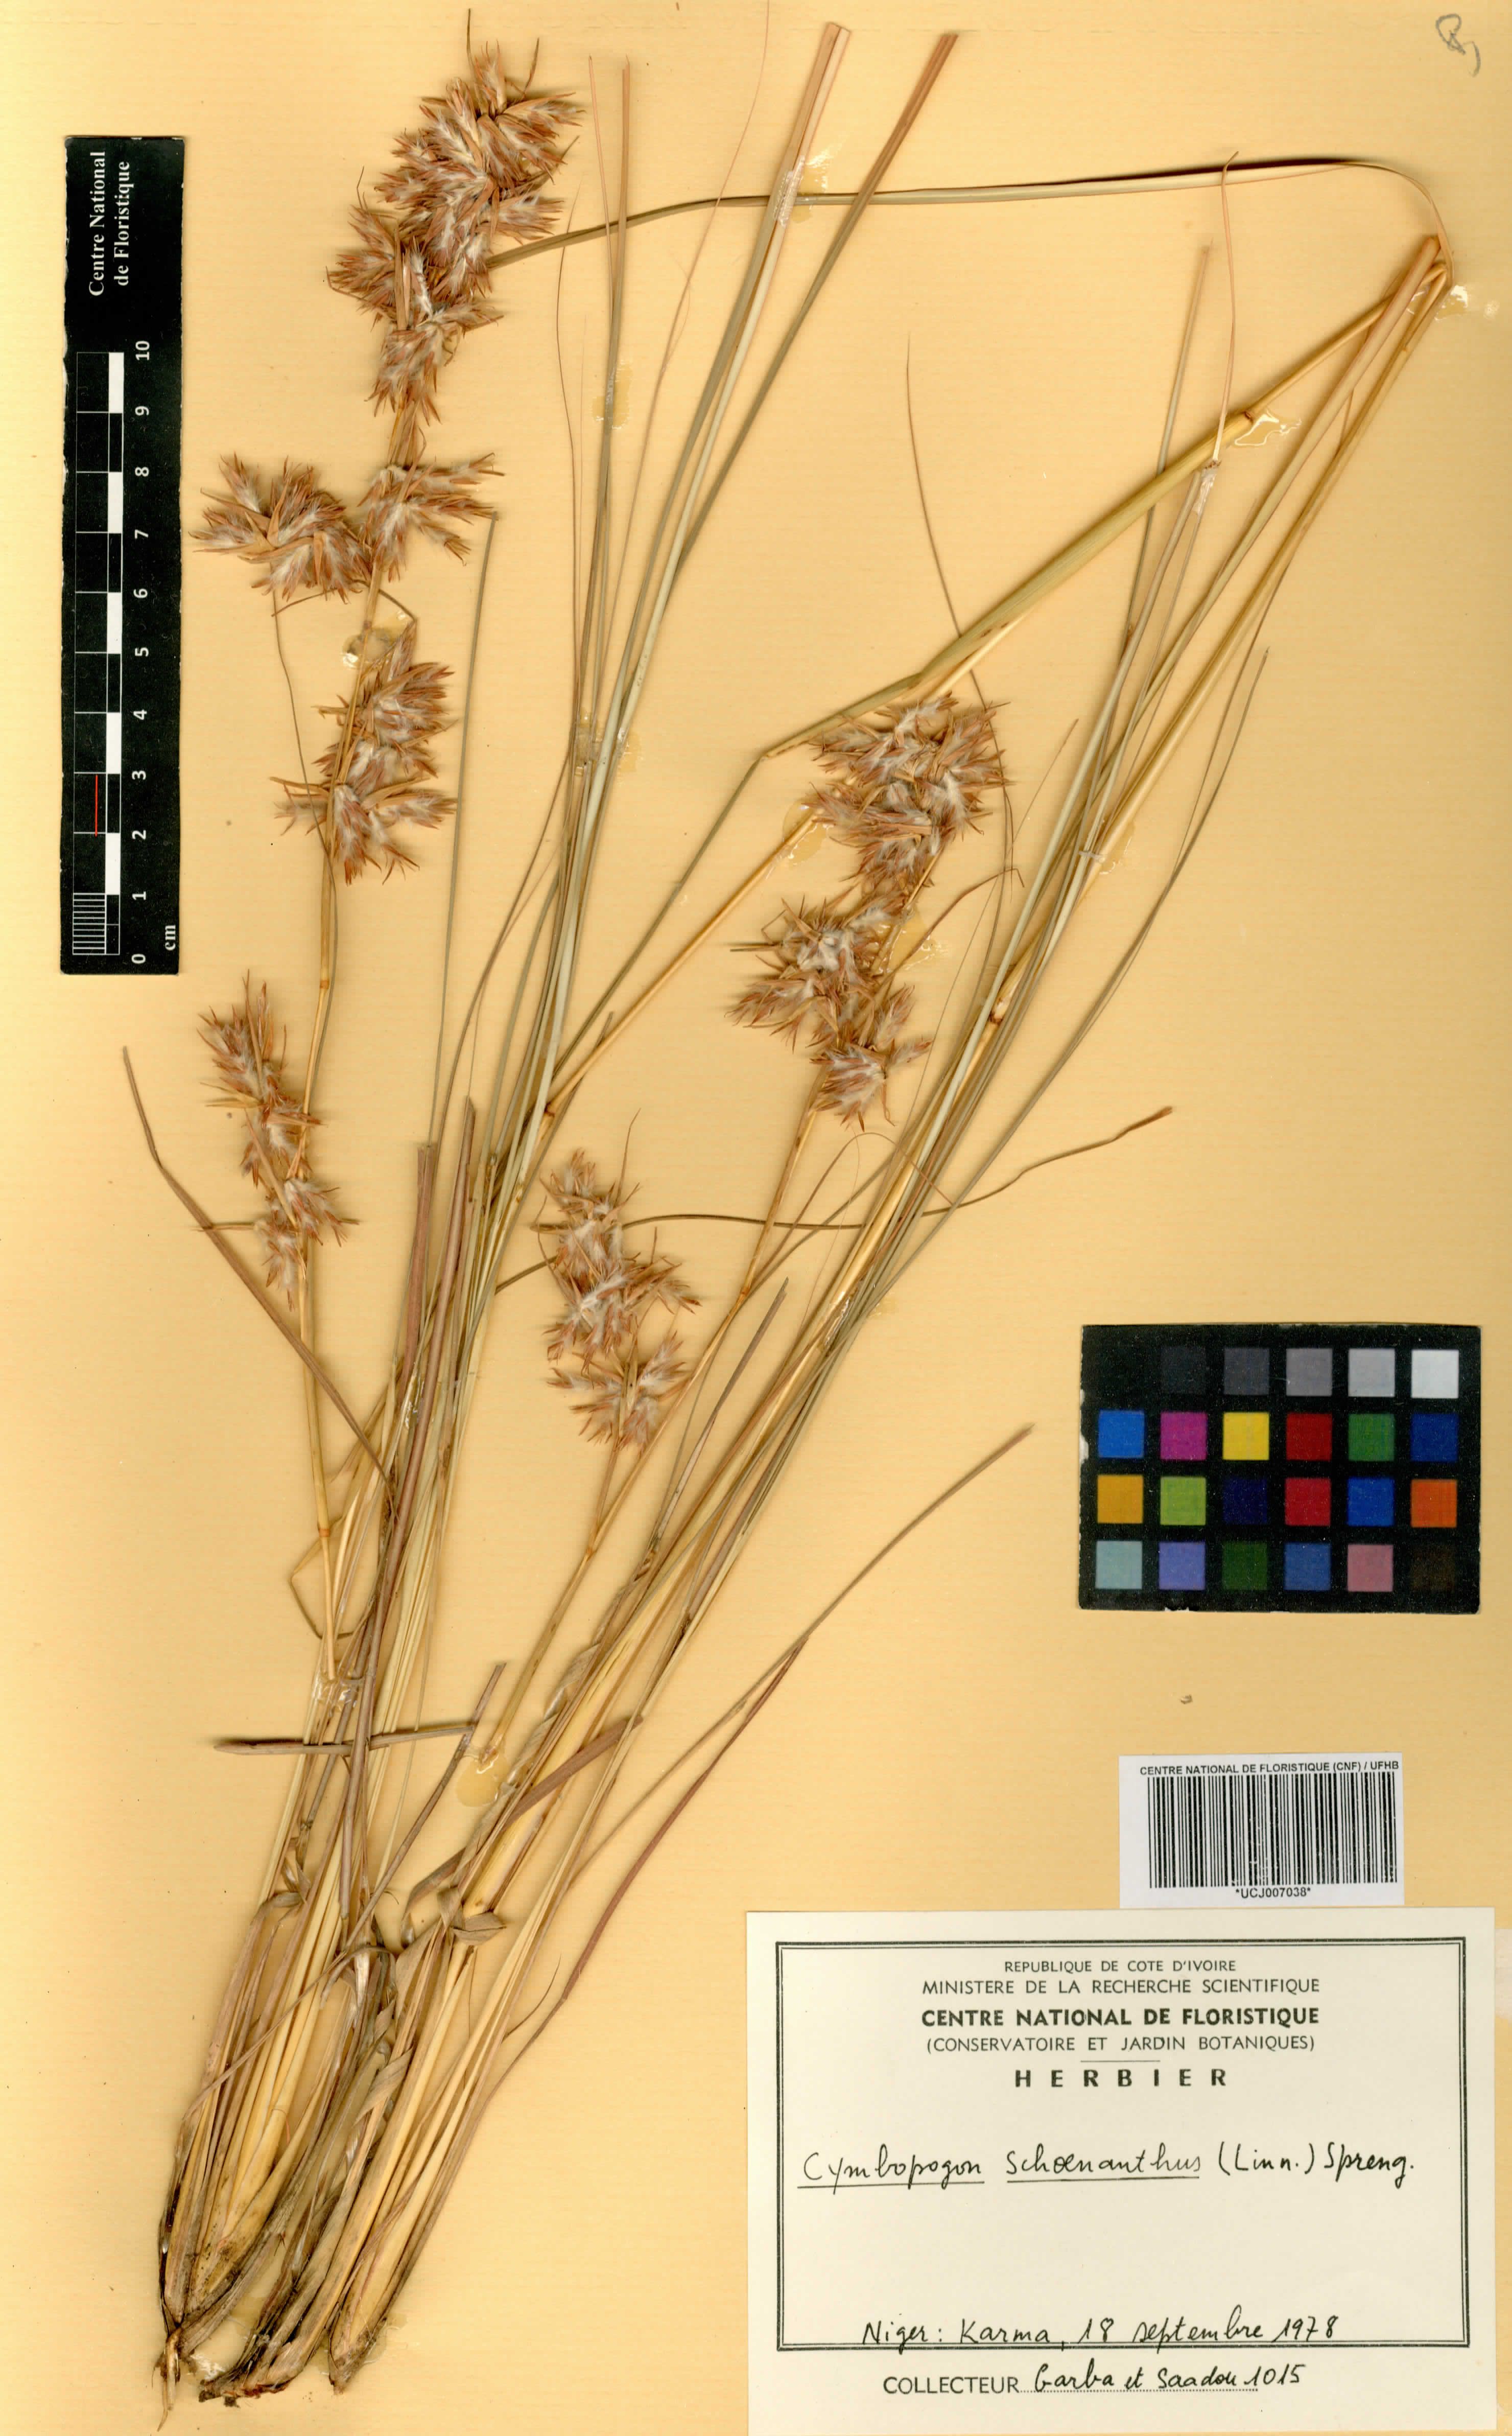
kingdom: Plantae
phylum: Tracheophyta
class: Liliopsida
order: Poales
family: Poaceae
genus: Cymbopogon
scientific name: Cymbopogon schoenanthus
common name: Geranium grass
